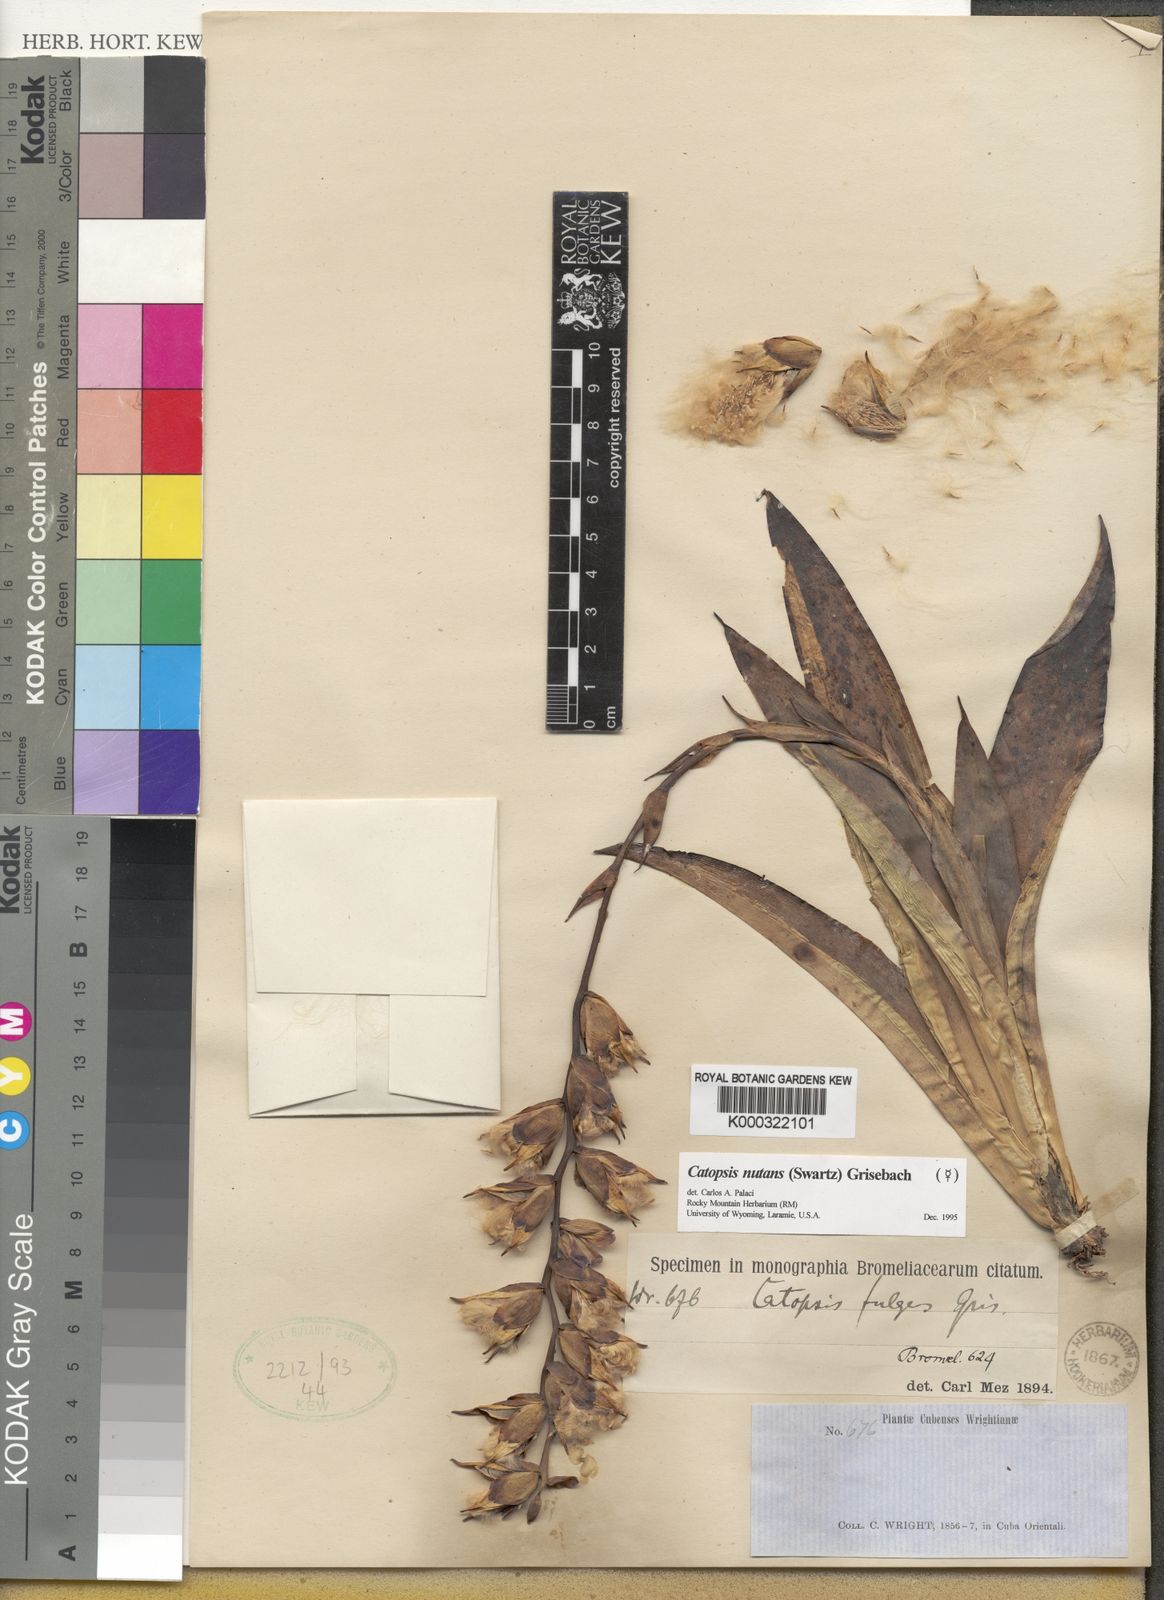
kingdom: Plantae
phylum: Tracheophyta
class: Liliopsida
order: Poales
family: Bromeliaceae
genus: Catopsis
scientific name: Catopsis
